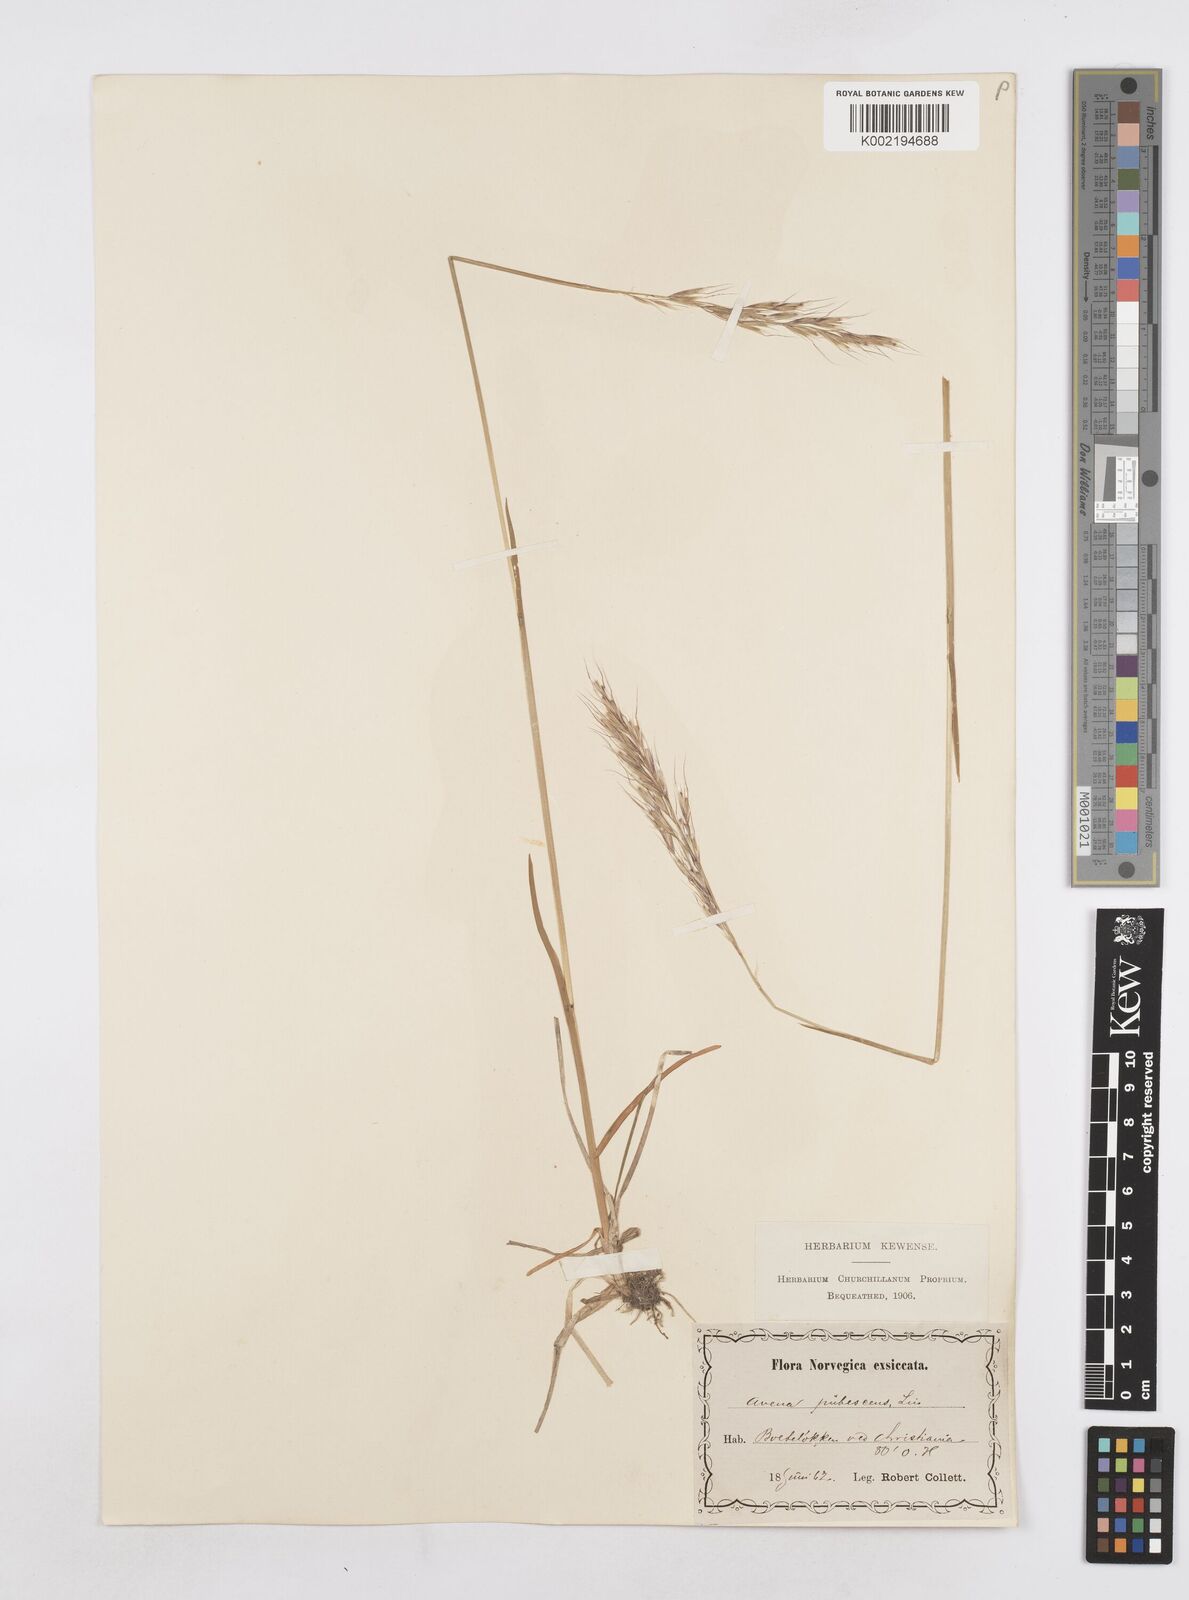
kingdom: Plantae
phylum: Tracheophyta
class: Liliopsida
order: Poales
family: Poaceae
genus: Avenula
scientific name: Avenula pubescens
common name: Downy alpine oatgrass
